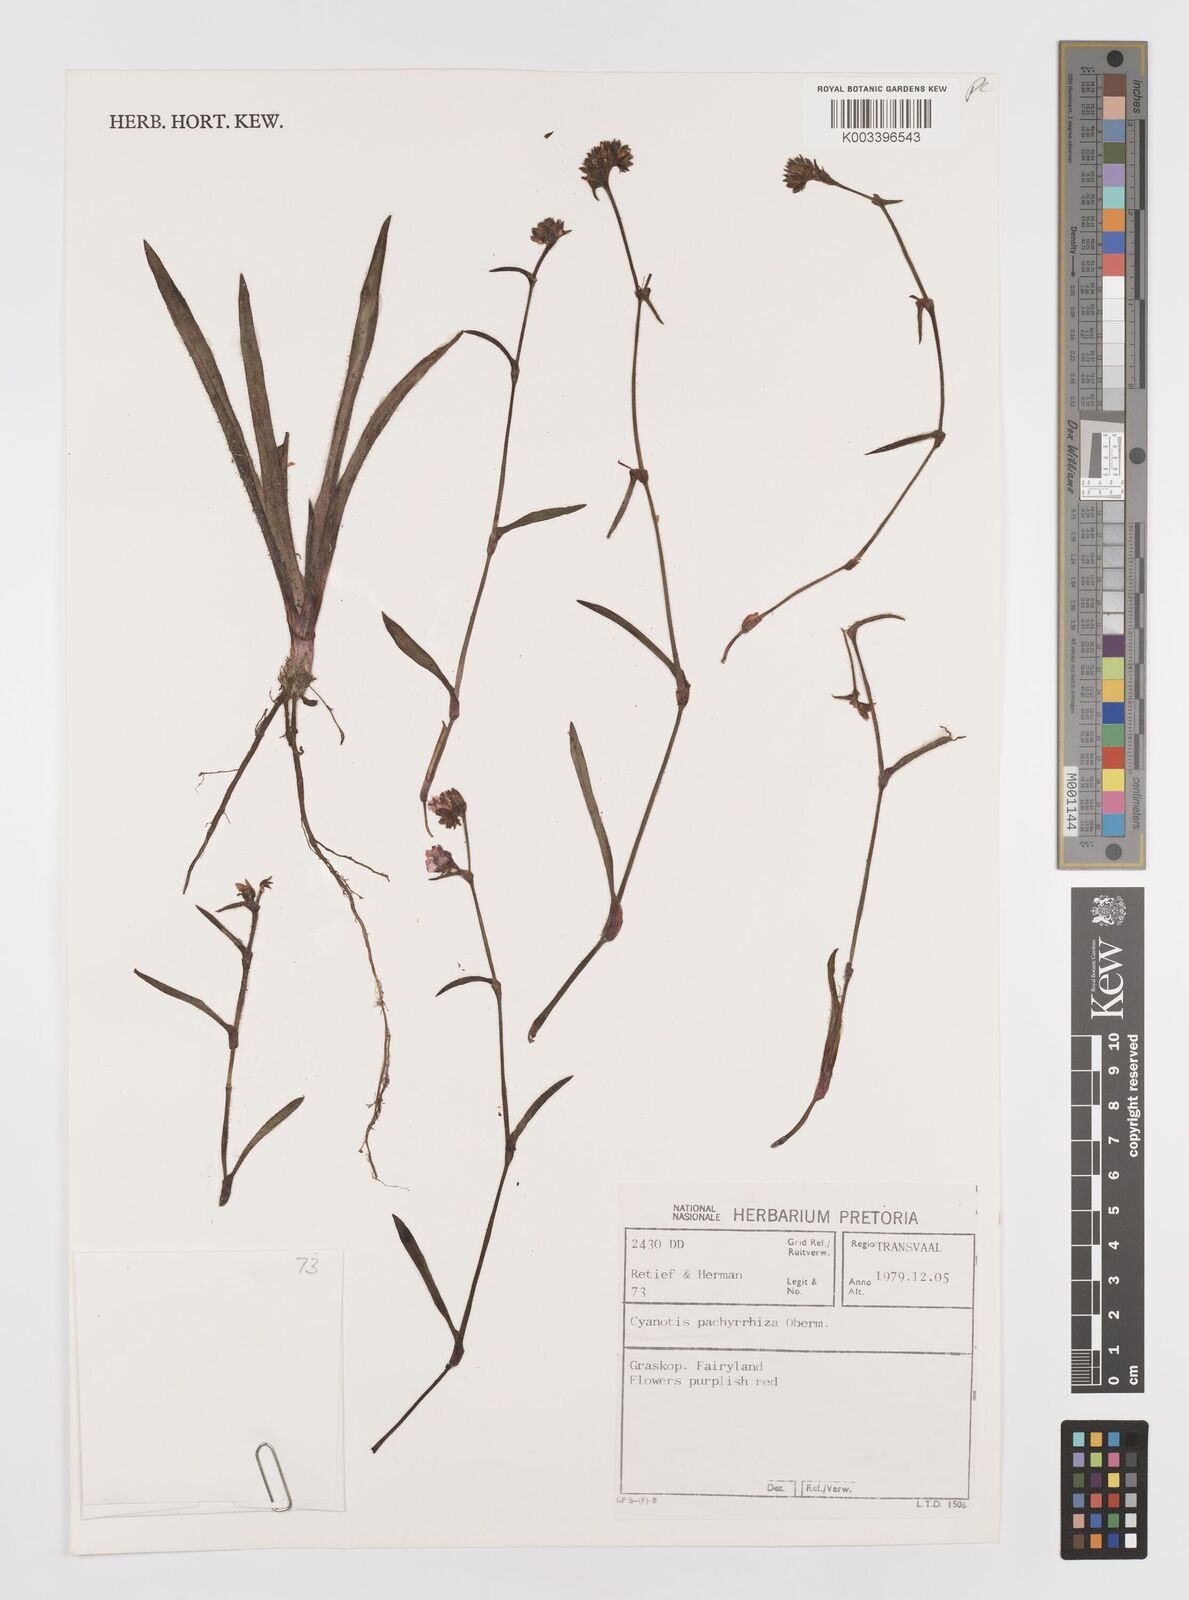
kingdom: Plantae
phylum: Tracheophyta
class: Liliopsida
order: Commelinales
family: Commelinaceae
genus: Cyanotis
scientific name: Cyanotis pachyrrhiza
